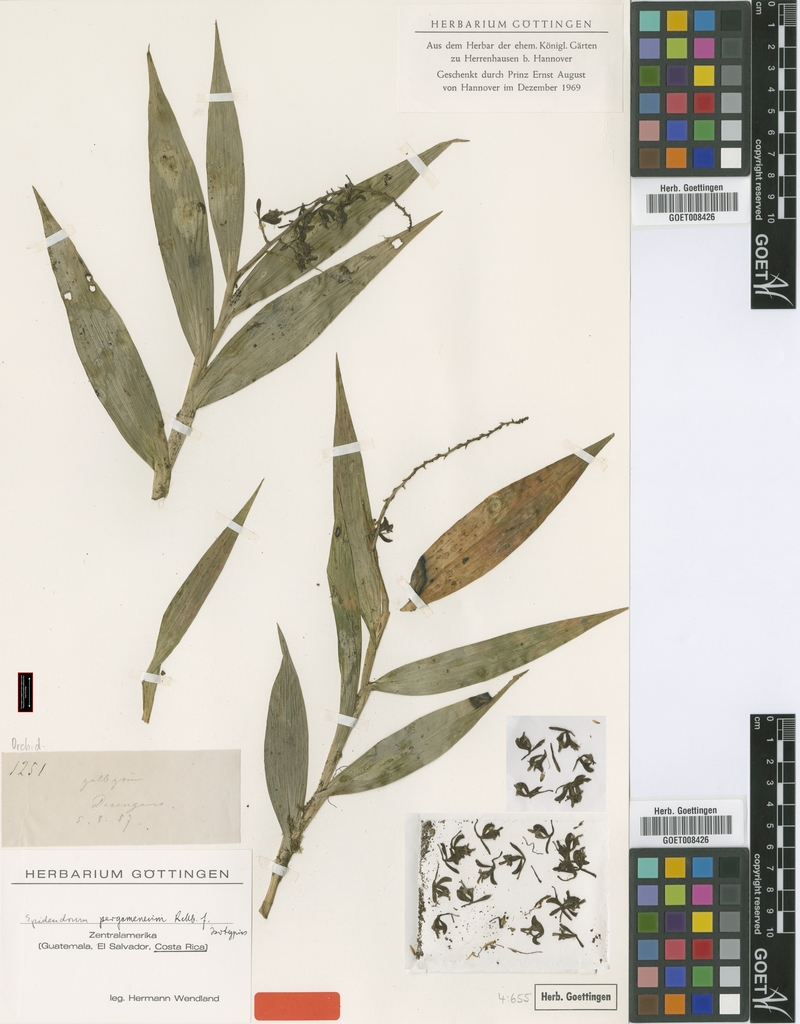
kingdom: Plantae
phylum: Tracheophyta
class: Liliopsida
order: Asparagales
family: Orchidaceae
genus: Epidendrum
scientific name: Epidendrum pergameneum
